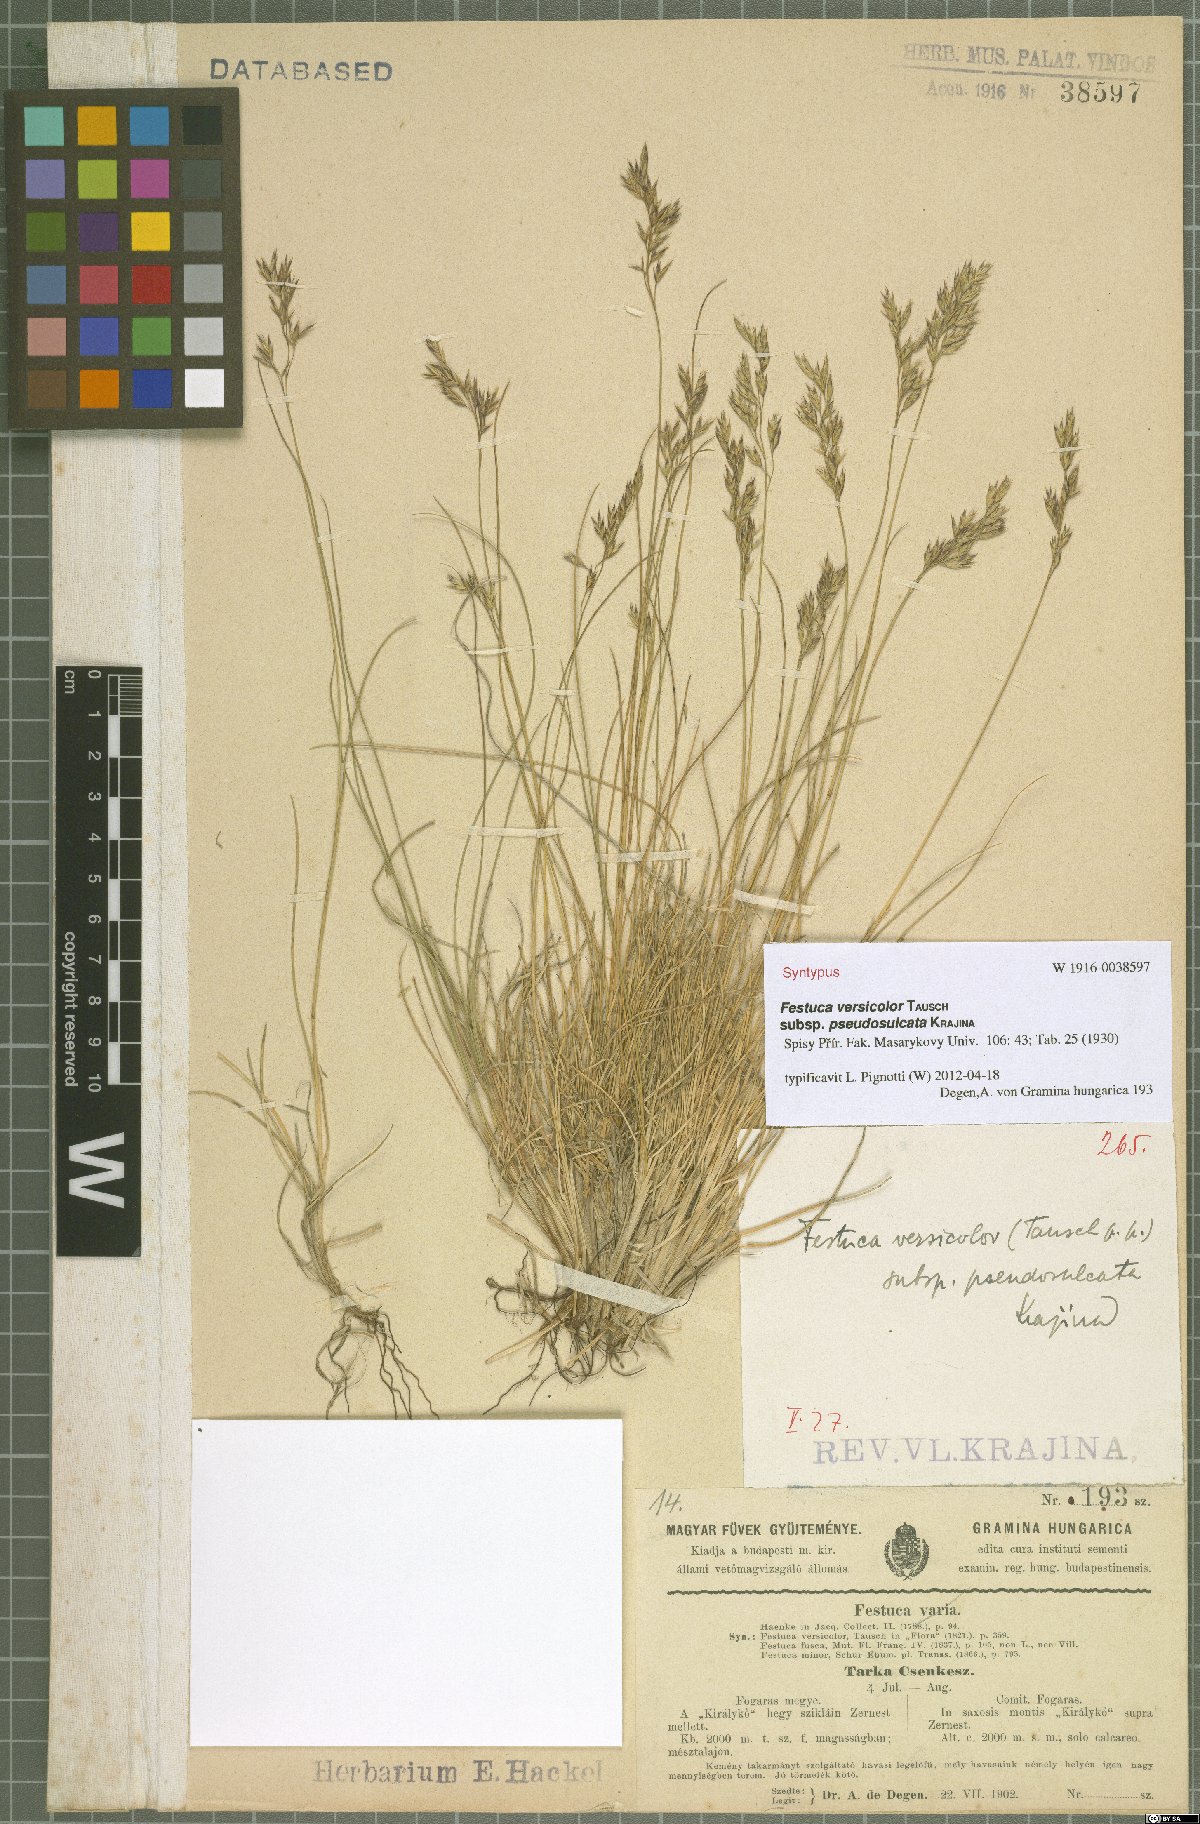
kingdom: Plantae
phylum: Tracheophyta
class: Liliopsida
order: Poales
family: Poaceae
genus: Festuca
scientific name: Festuca versicolor
